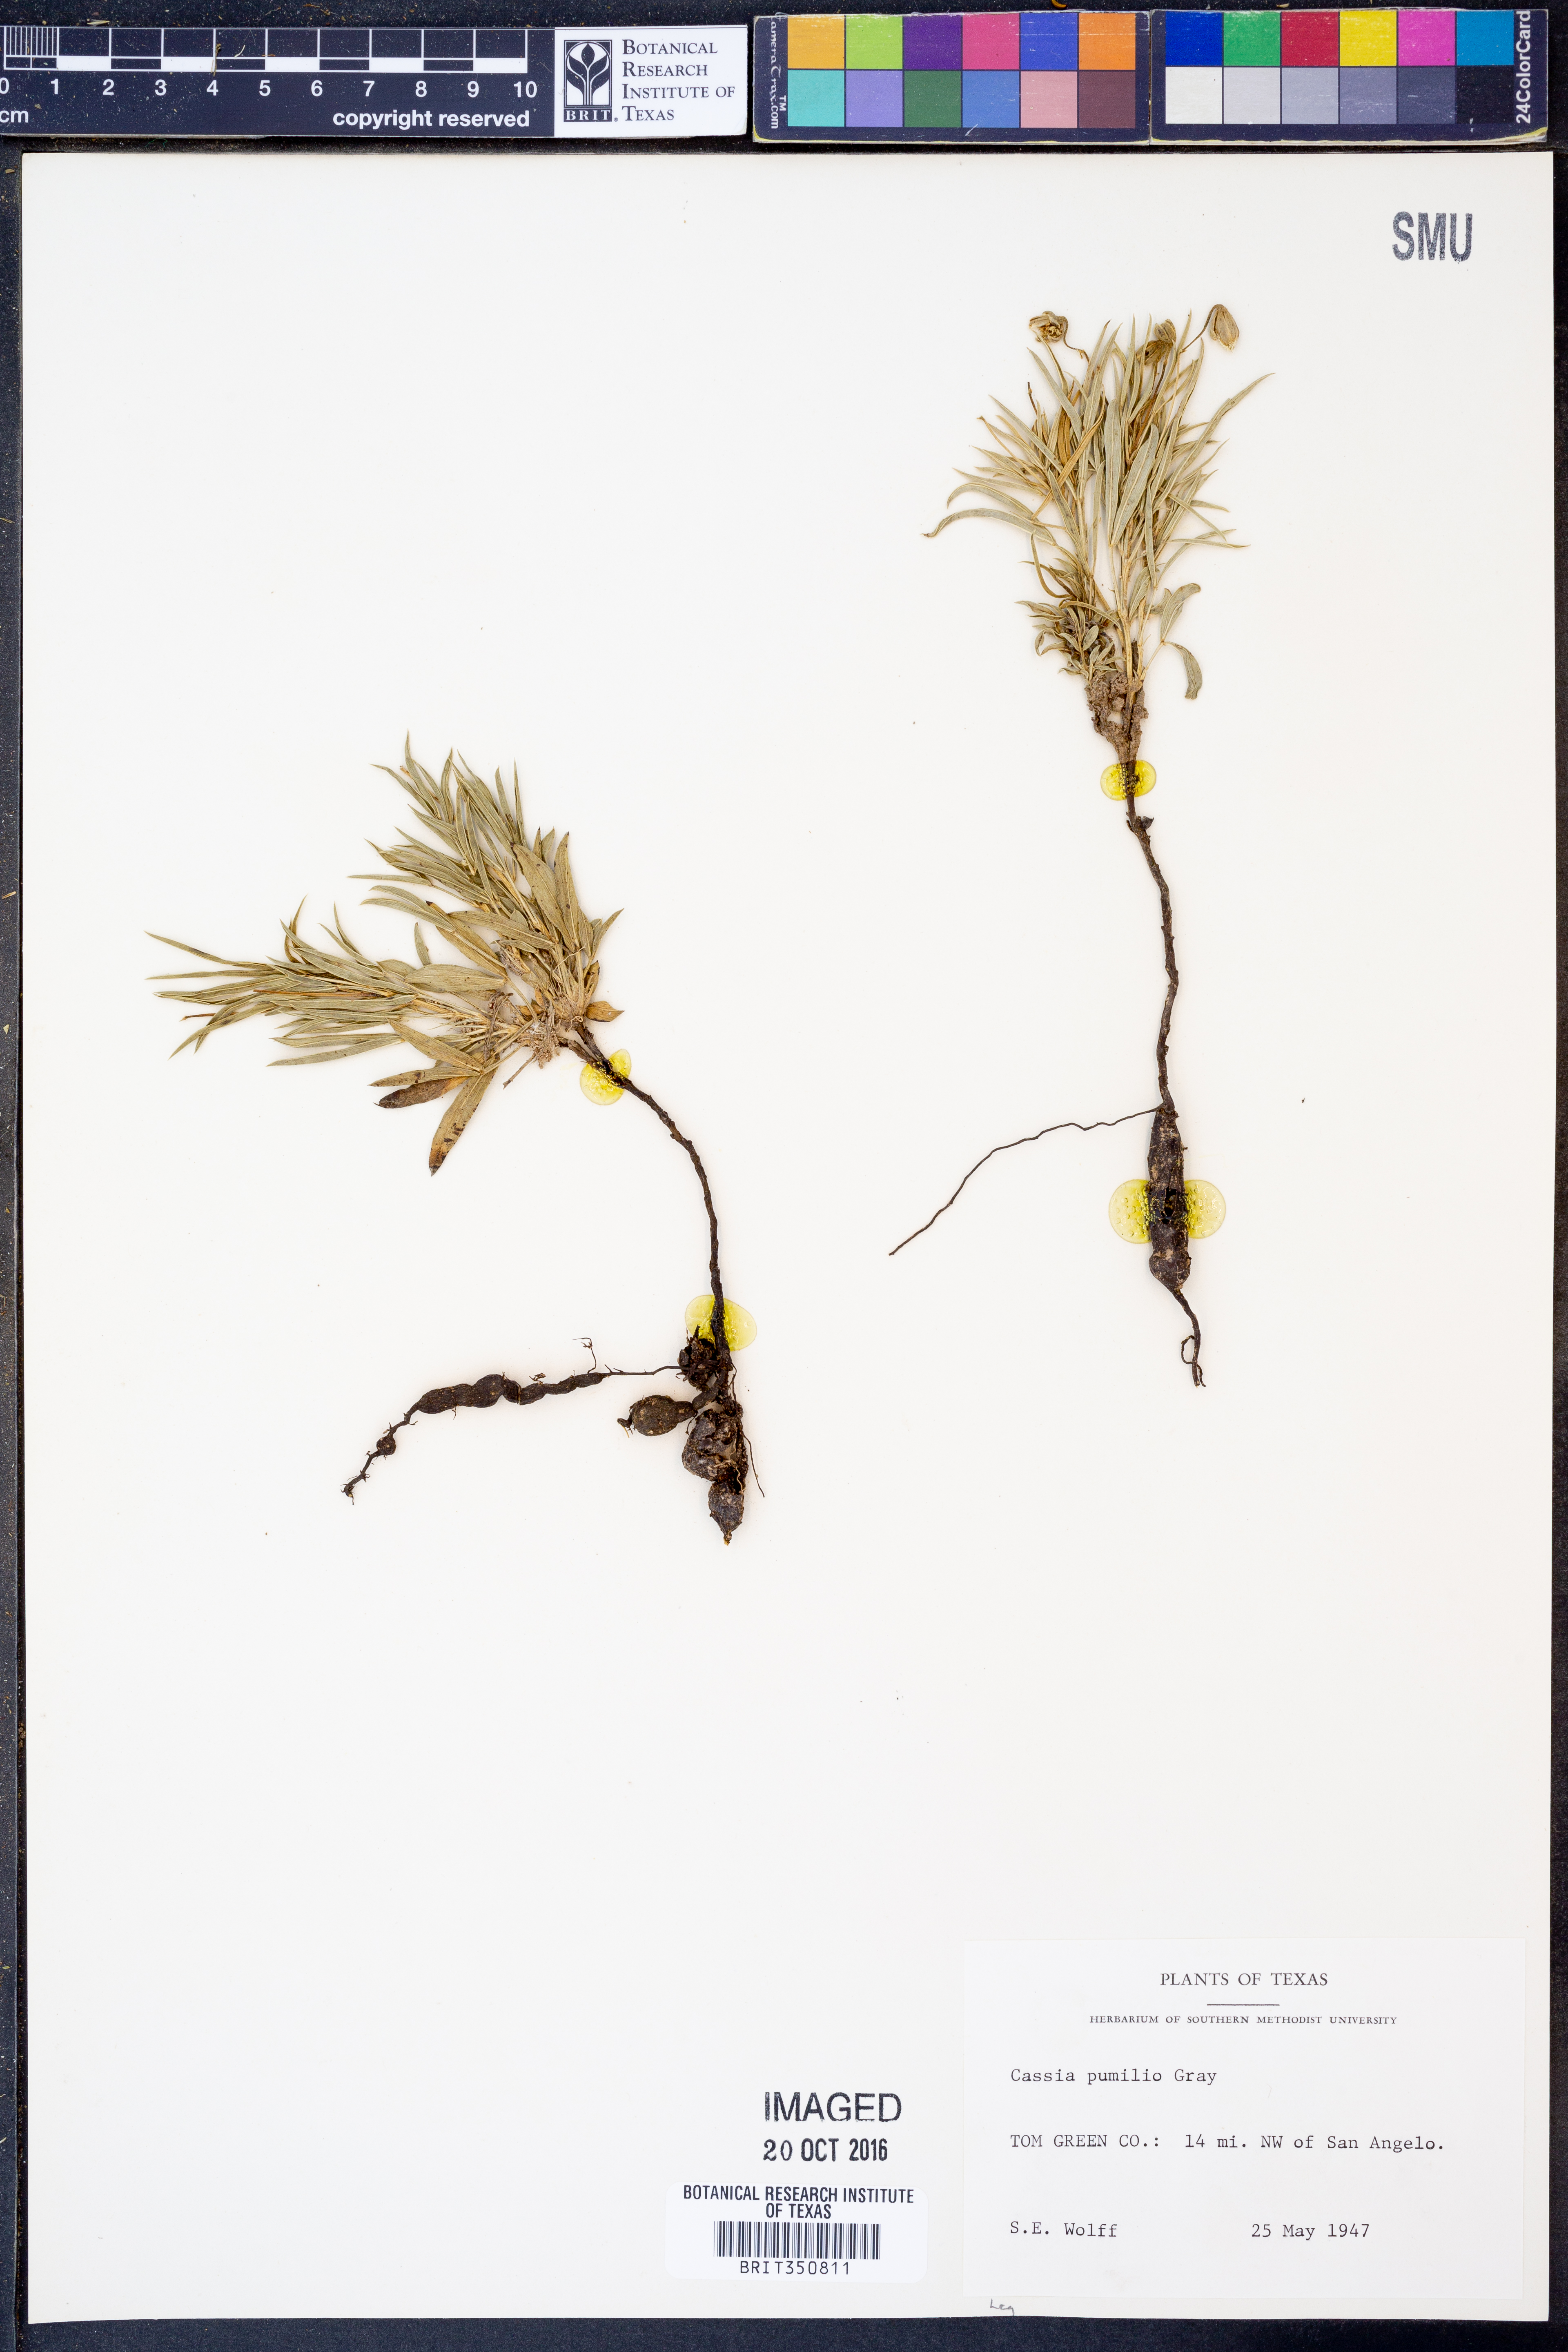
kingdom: Plantae
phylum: Tracheophyta
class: Magnoliopsida
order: Fabales
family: Fabaceae
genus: Senna
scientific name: Senna pumilio
